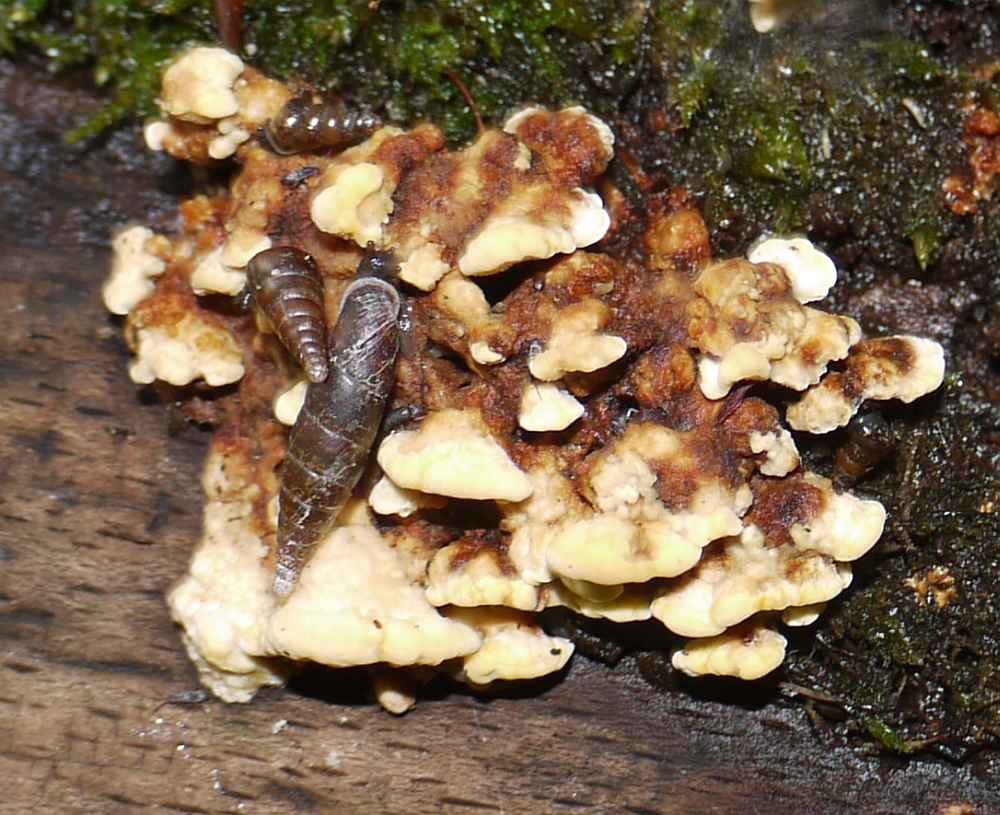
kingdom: Fungi
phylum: Basidiomycota
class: Agaricomycetes
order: Polyporales
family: Steccherinaceae
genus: Antrodiella
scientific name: Antrodiella serpula
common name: gulrandet elastikporesvamp
